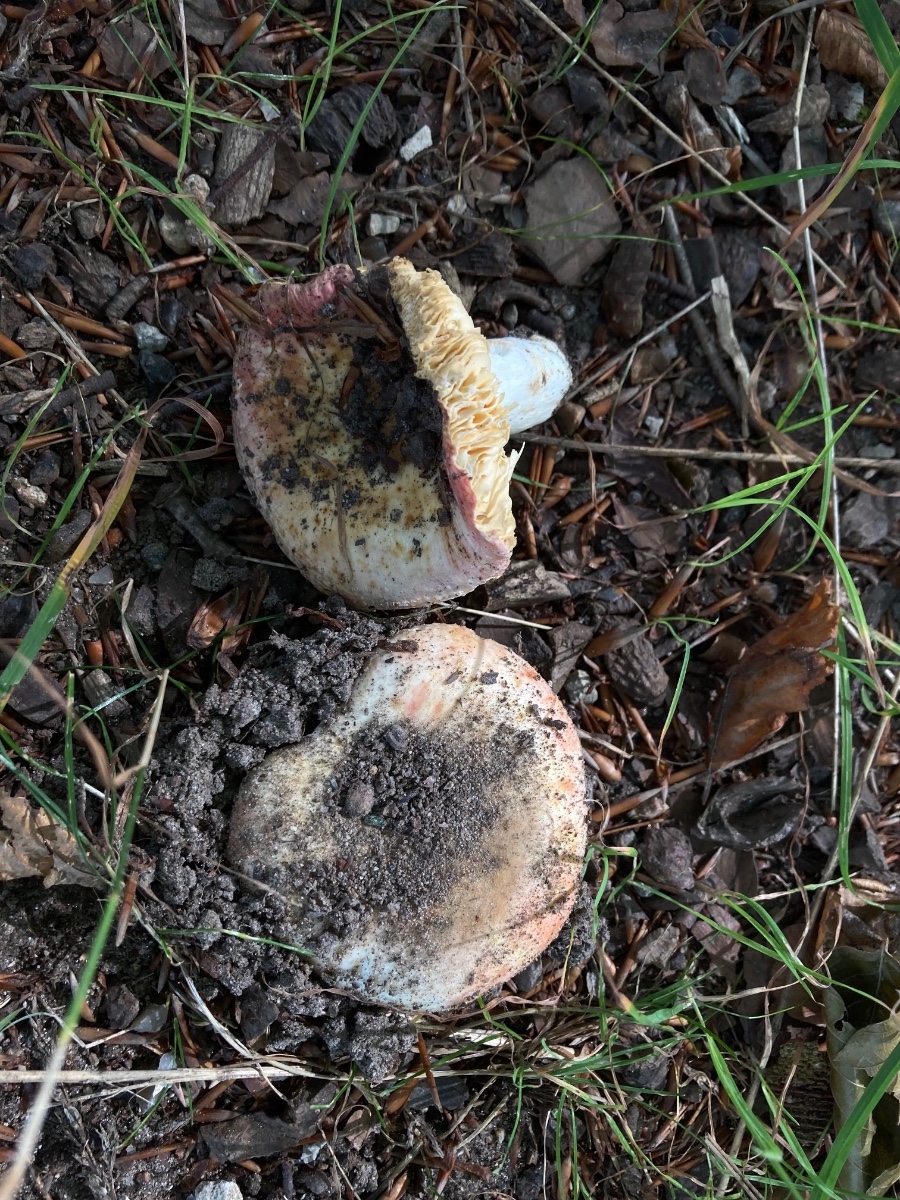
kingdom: Fungi
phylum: Basidiomycota
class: Agaricomycetes
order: Russulales
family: Russulaceae
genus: Russula
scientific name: Russula maculata
